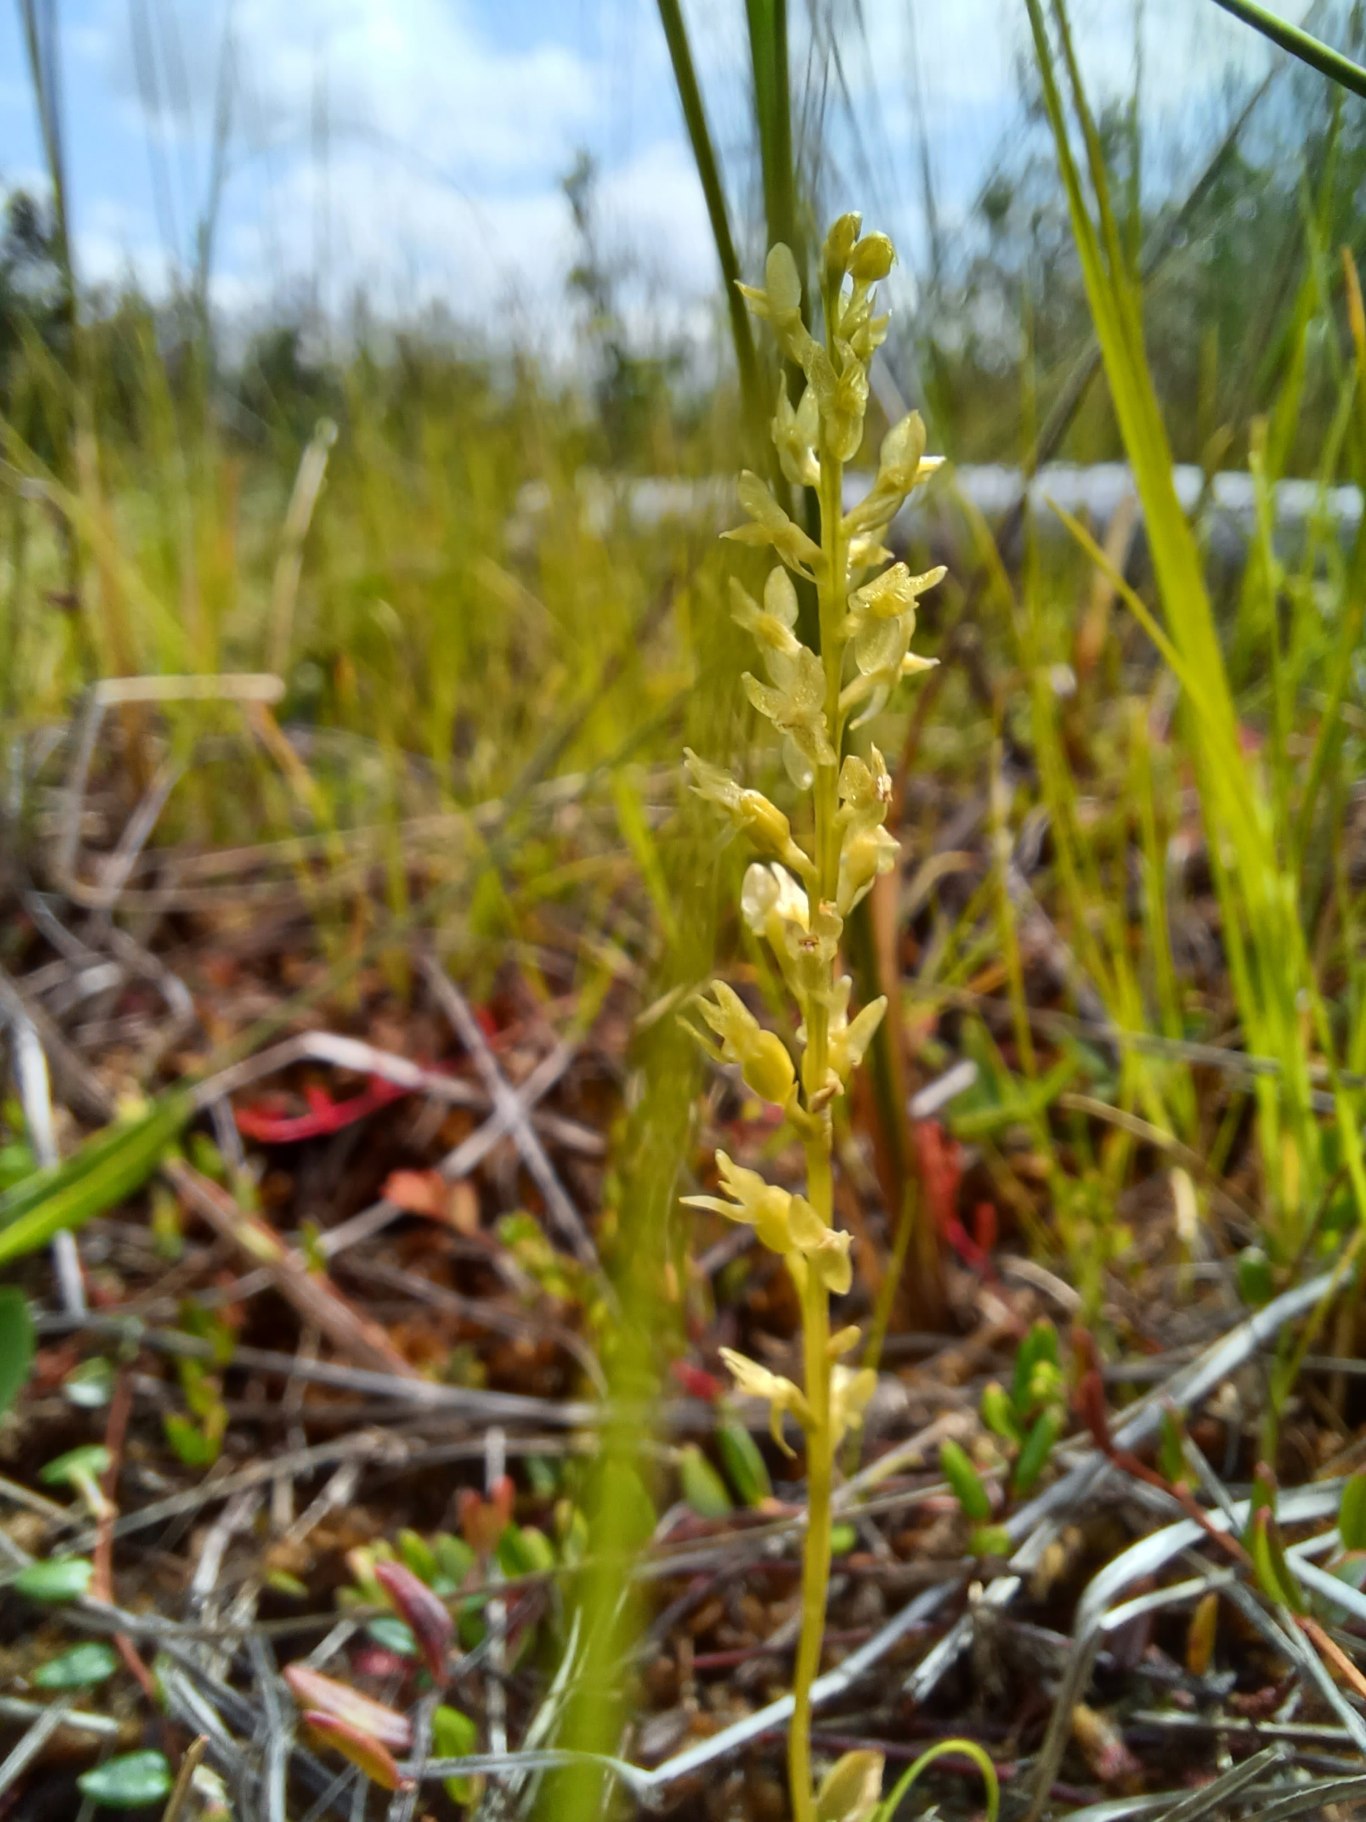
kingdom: Plantae
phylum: Tracheophyta
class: Liliopsida
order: Asparagales
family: Orchidaceae
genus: Hammarbya
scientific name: Hammarbya paludosa
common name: Hjertelæbe
